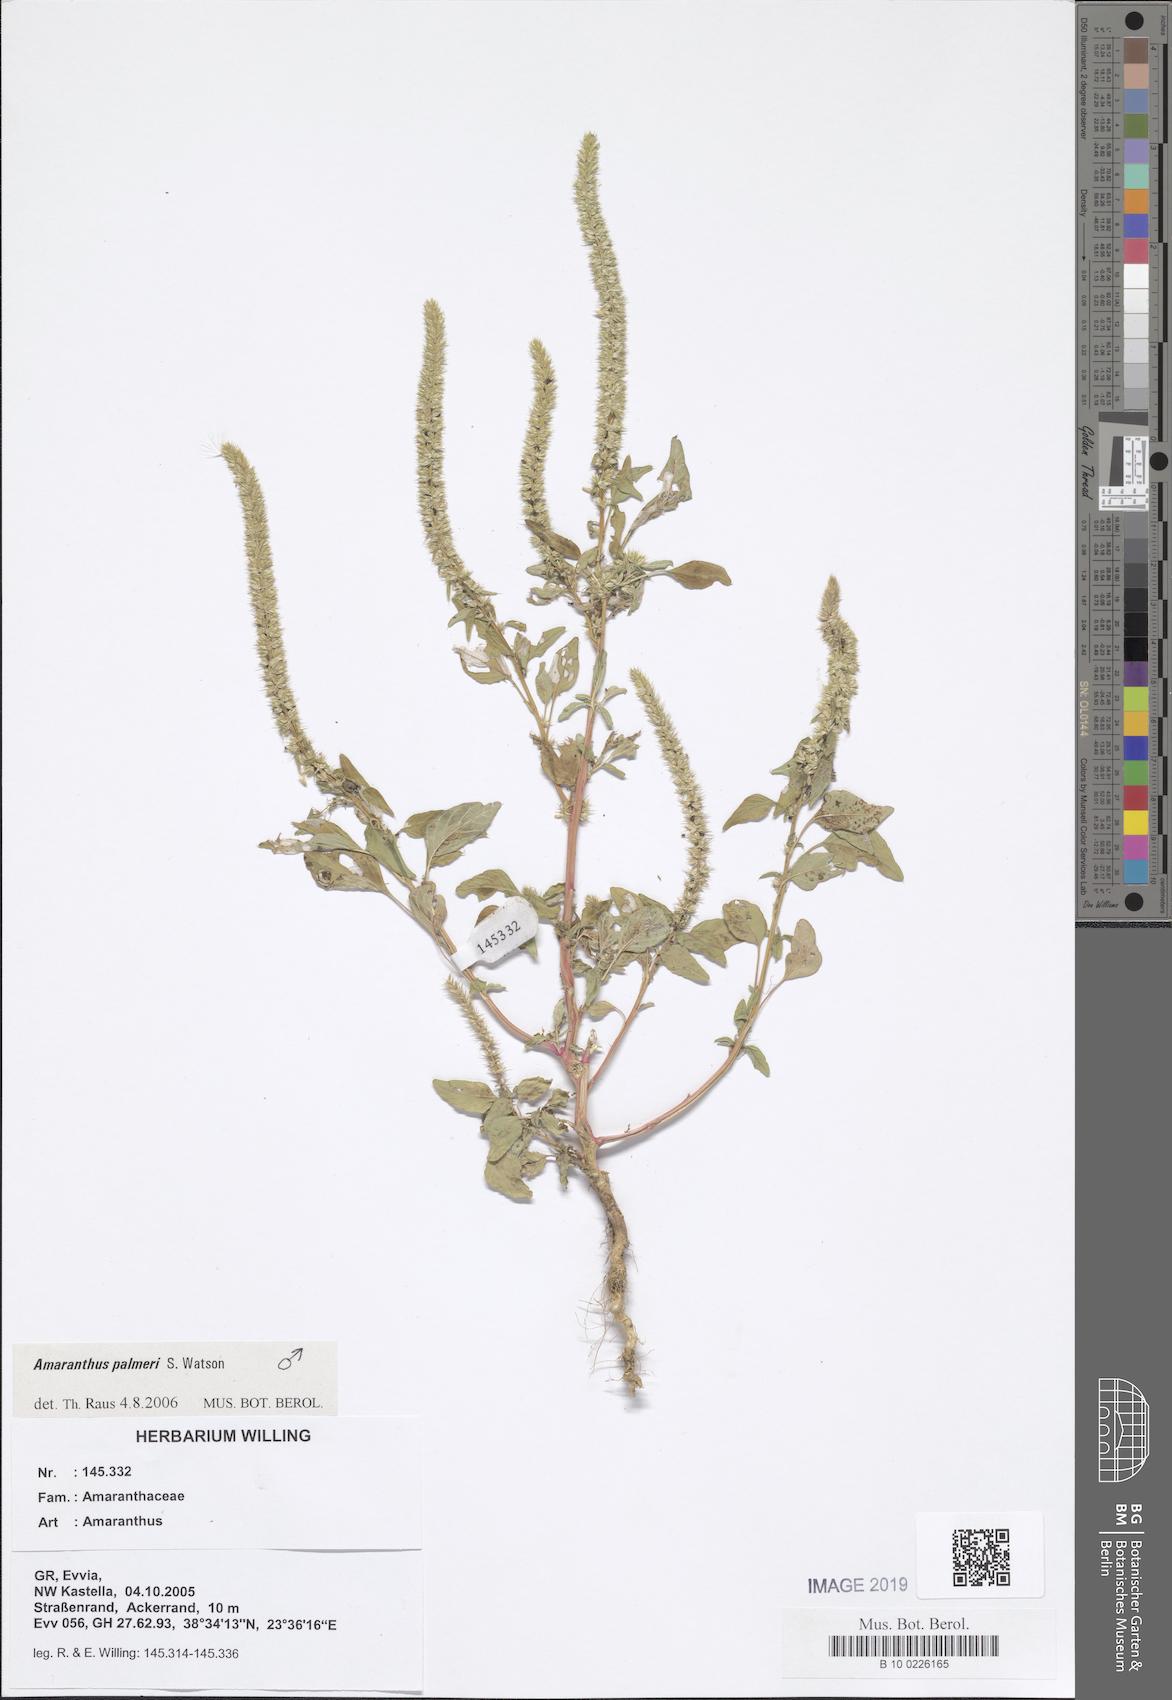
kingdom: Plantae
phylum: Tracheophyta
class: Magnoliopsida
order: Caryophyllales
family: Amaranthaceae
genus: Amaranthus
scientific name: Amaranthus
